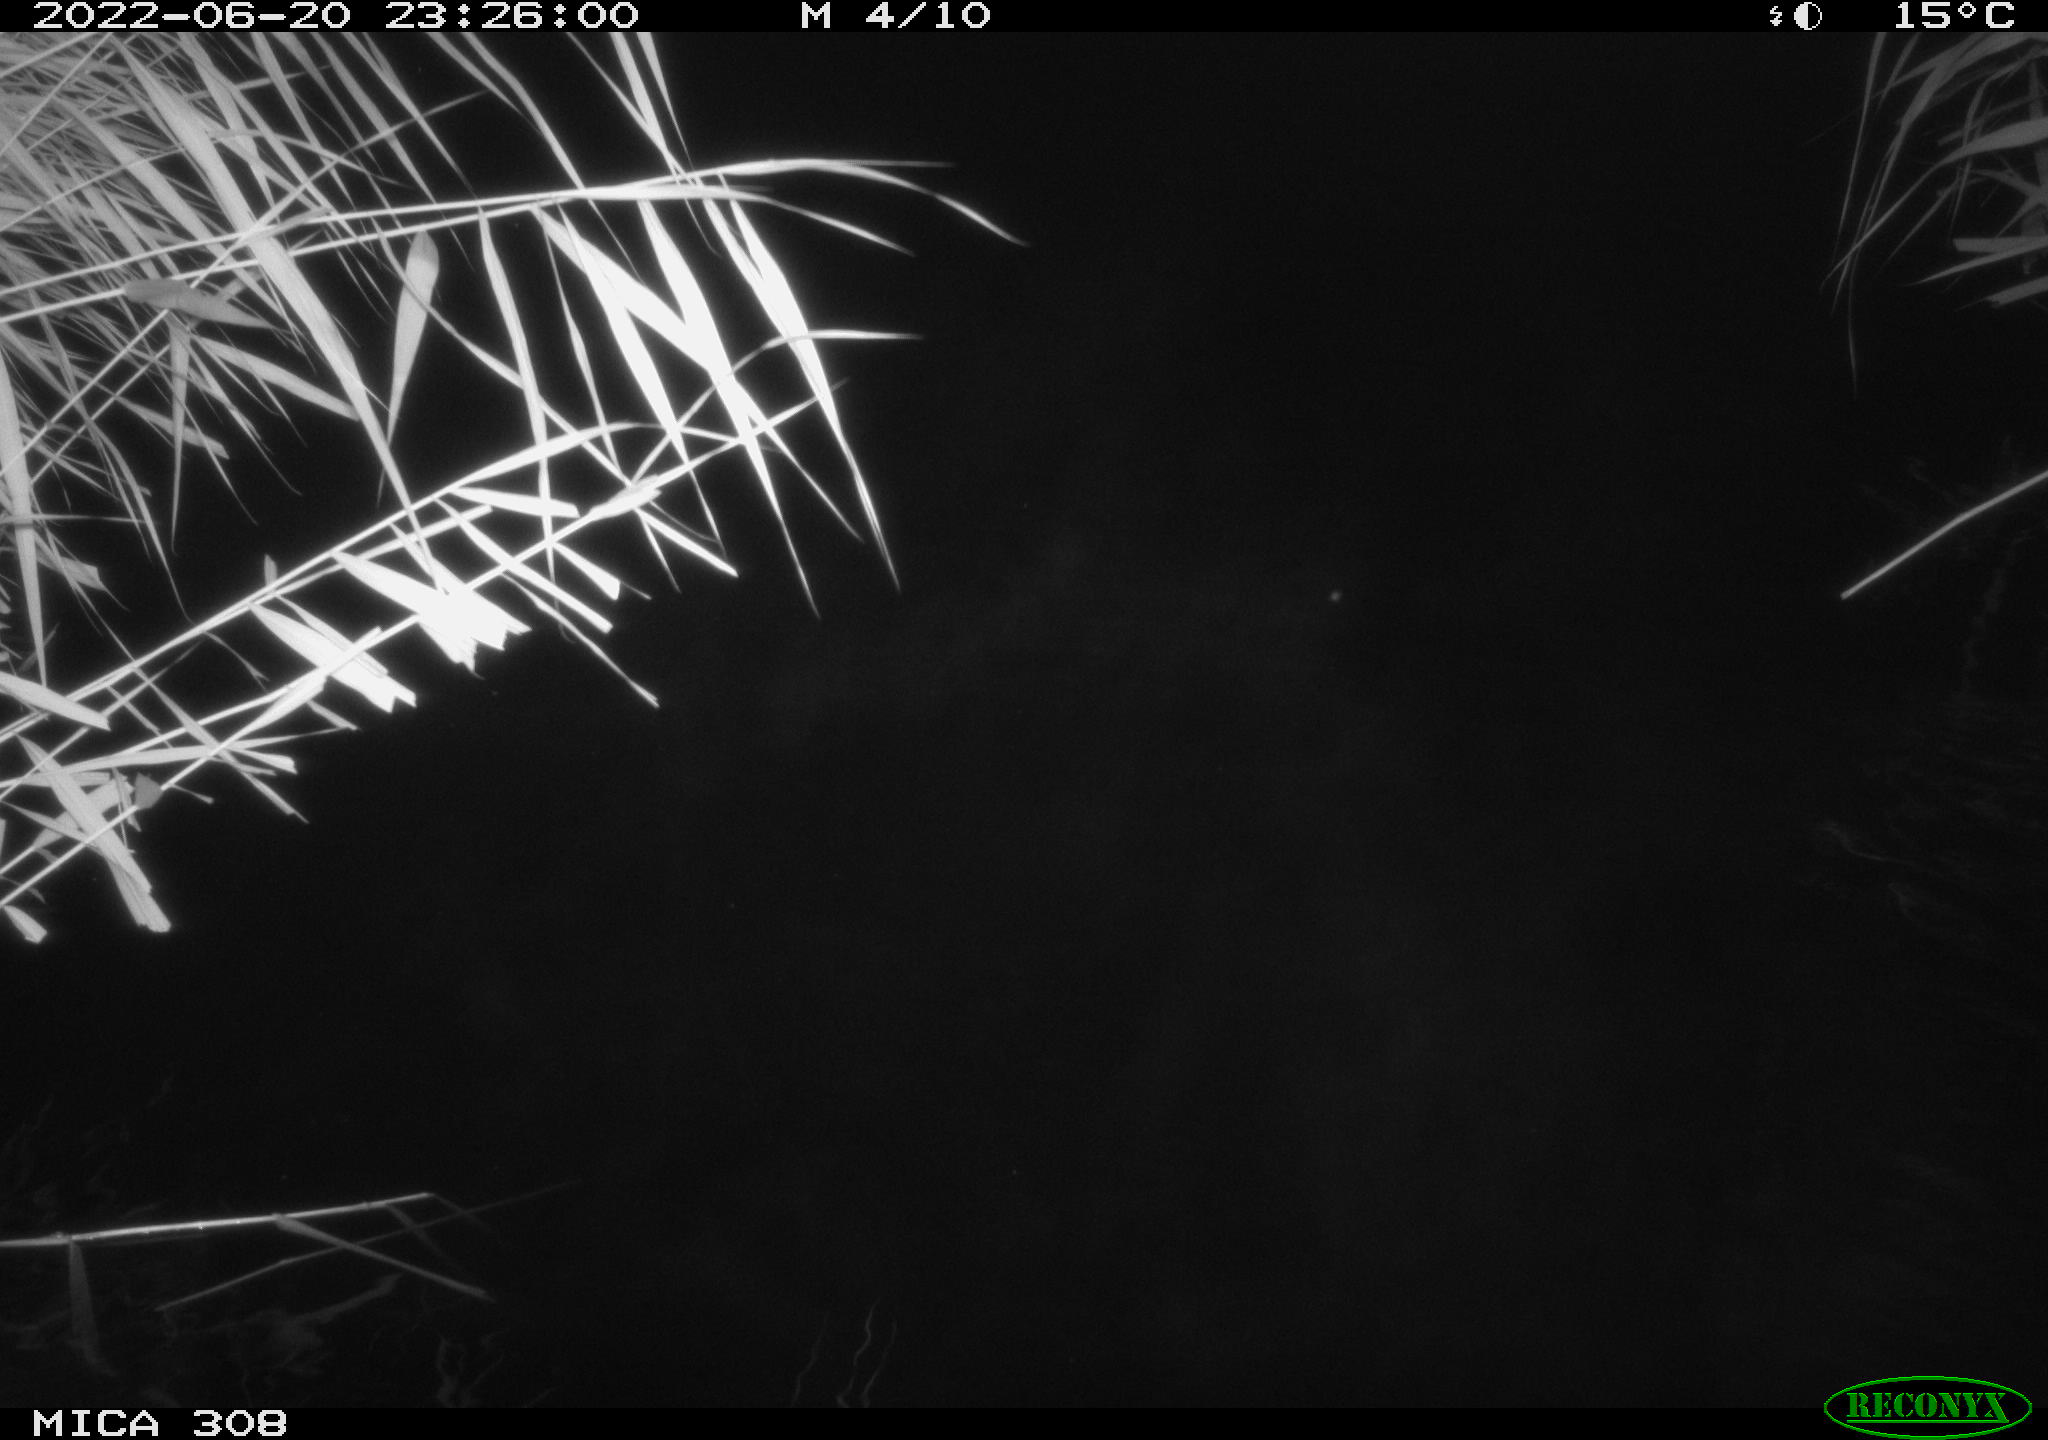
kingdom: Animalia
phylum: Chordata
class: Aves
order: Anseriformes
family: Anatidae
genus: Anas
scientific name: Anas platyrhynchos
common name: Mallard
